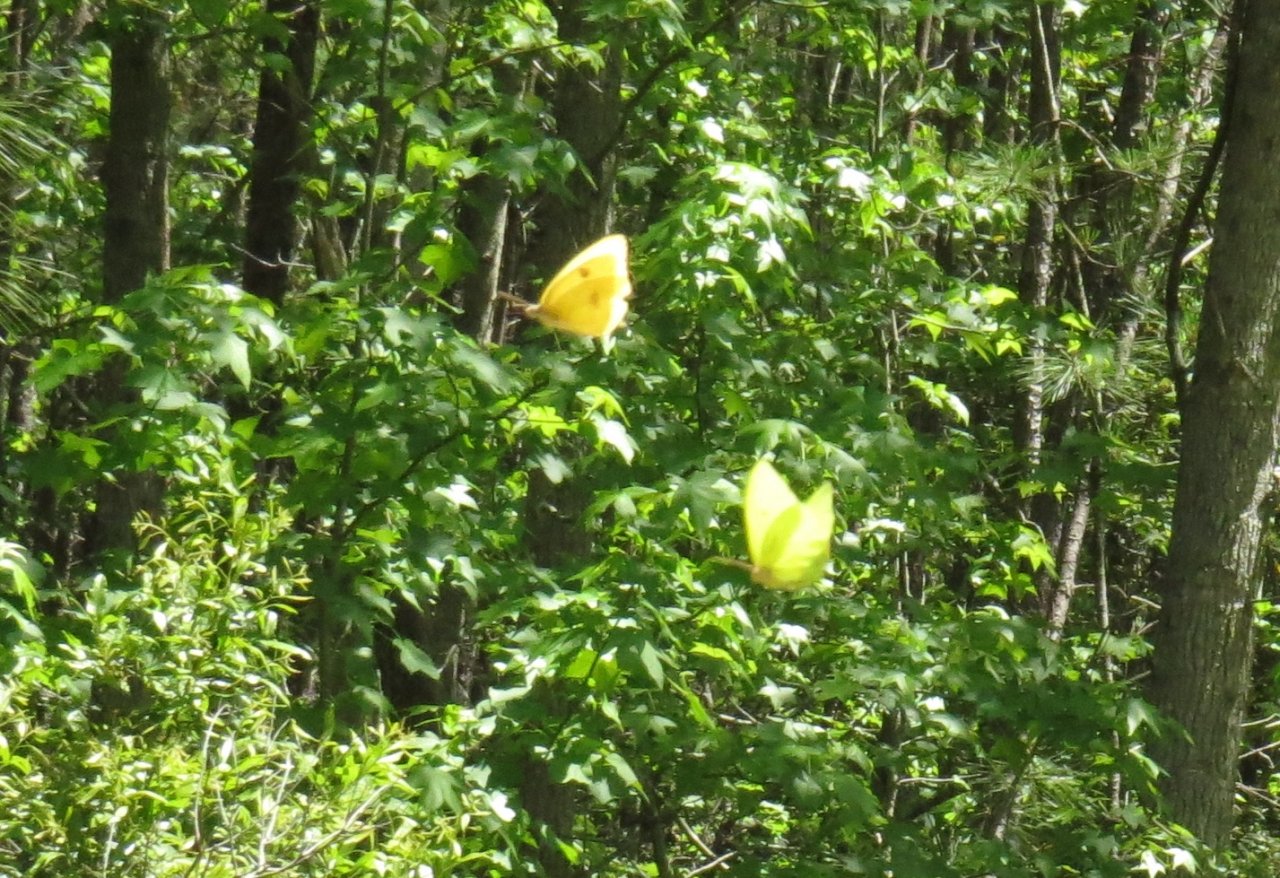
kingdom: Animalia
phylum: Arthropoda
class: Insecta
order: Lepidoptera
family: Pieridae
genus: Phoebis
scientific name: Phoebis sennae
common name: Cloudless Sulphur
